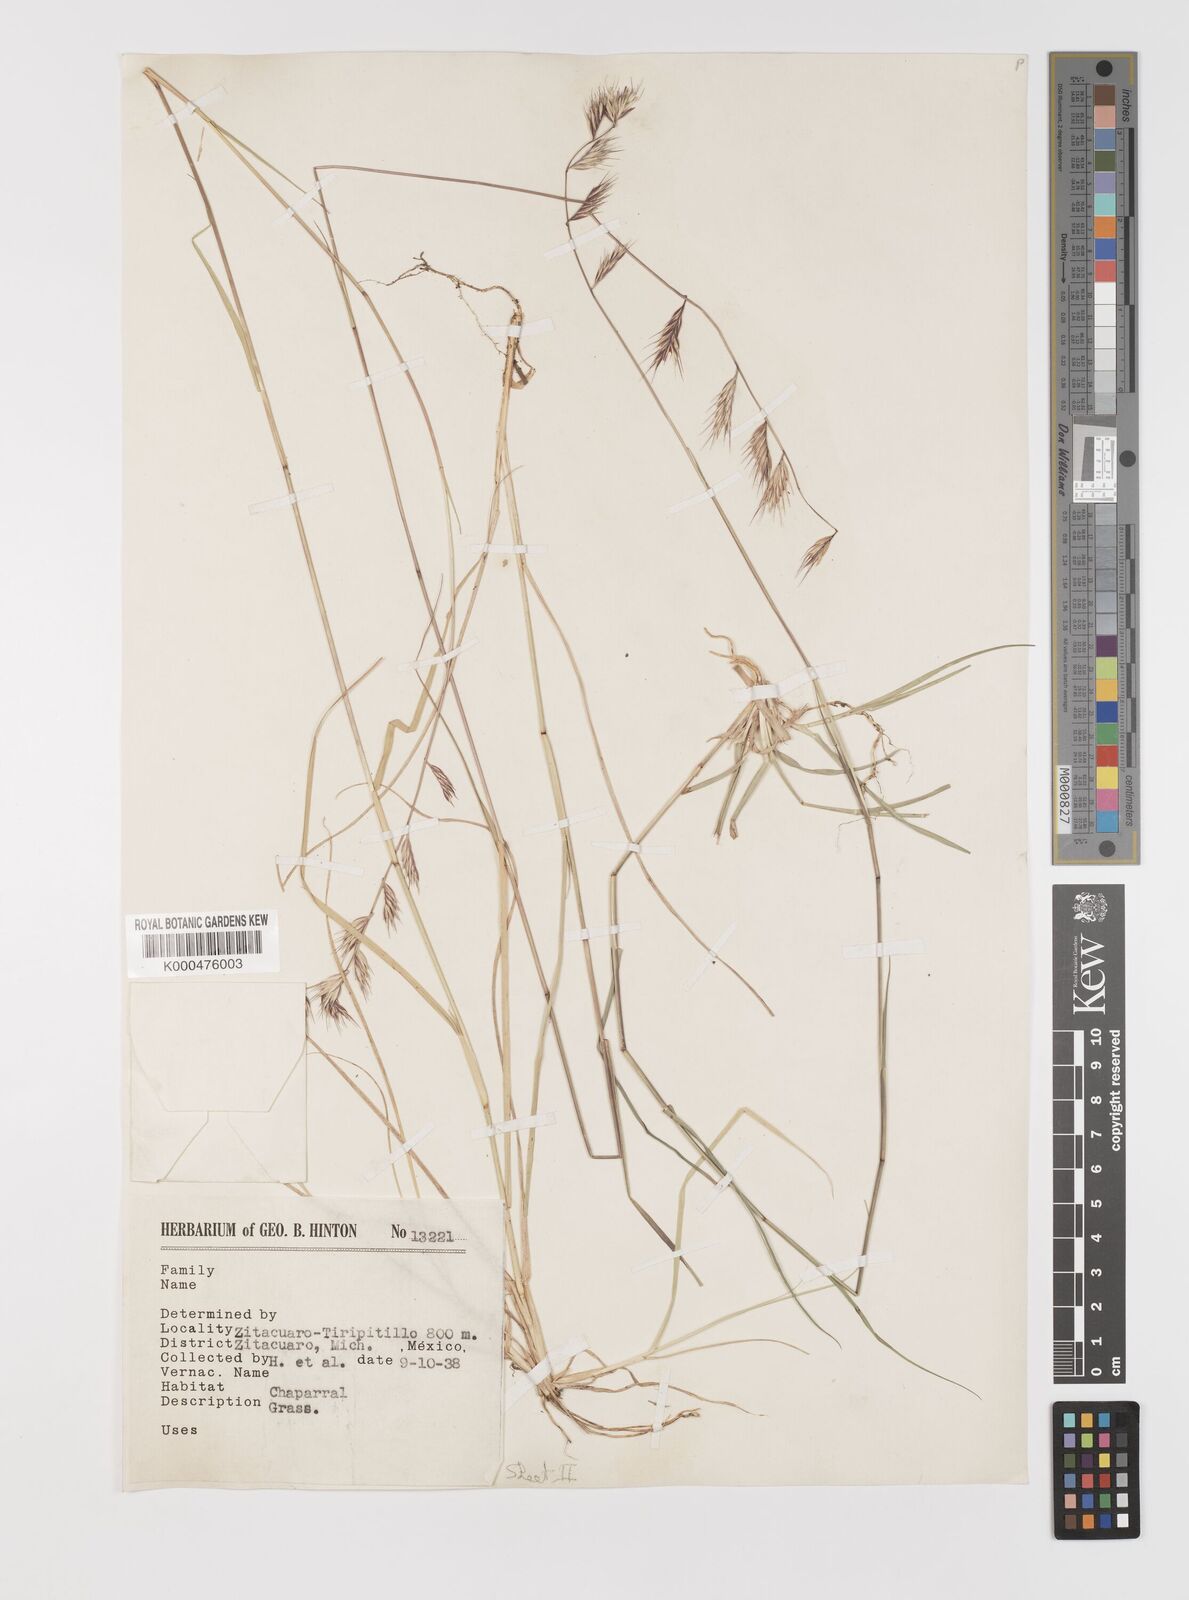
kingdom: Plantae
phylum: Tracheophyta
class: Liliopsida
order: Poales
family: Poaceae
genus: Bouteloua
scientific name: Bouteloua repens
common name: Slender grama
